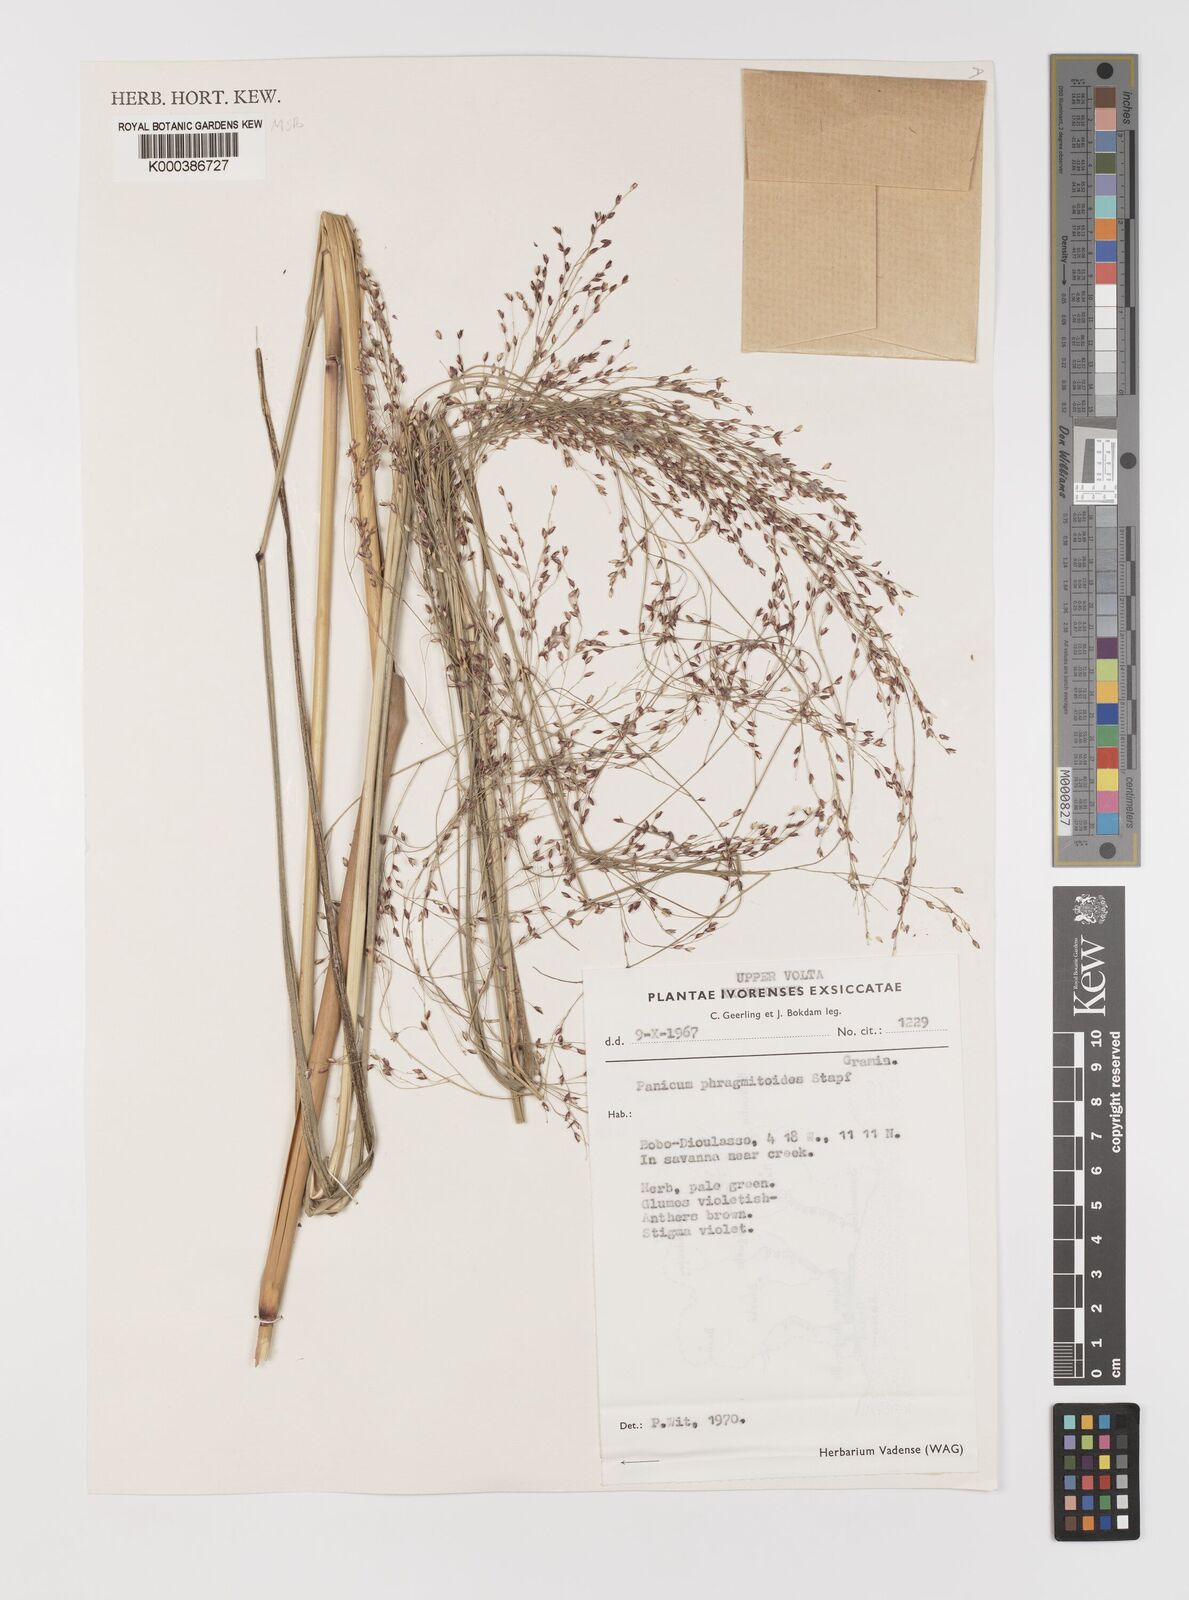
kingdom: Plantae
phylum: Tracheophyta
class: Liliopsida
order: Poales
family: Poaceae
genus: Panicum
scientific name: Panicum phragmitoides
